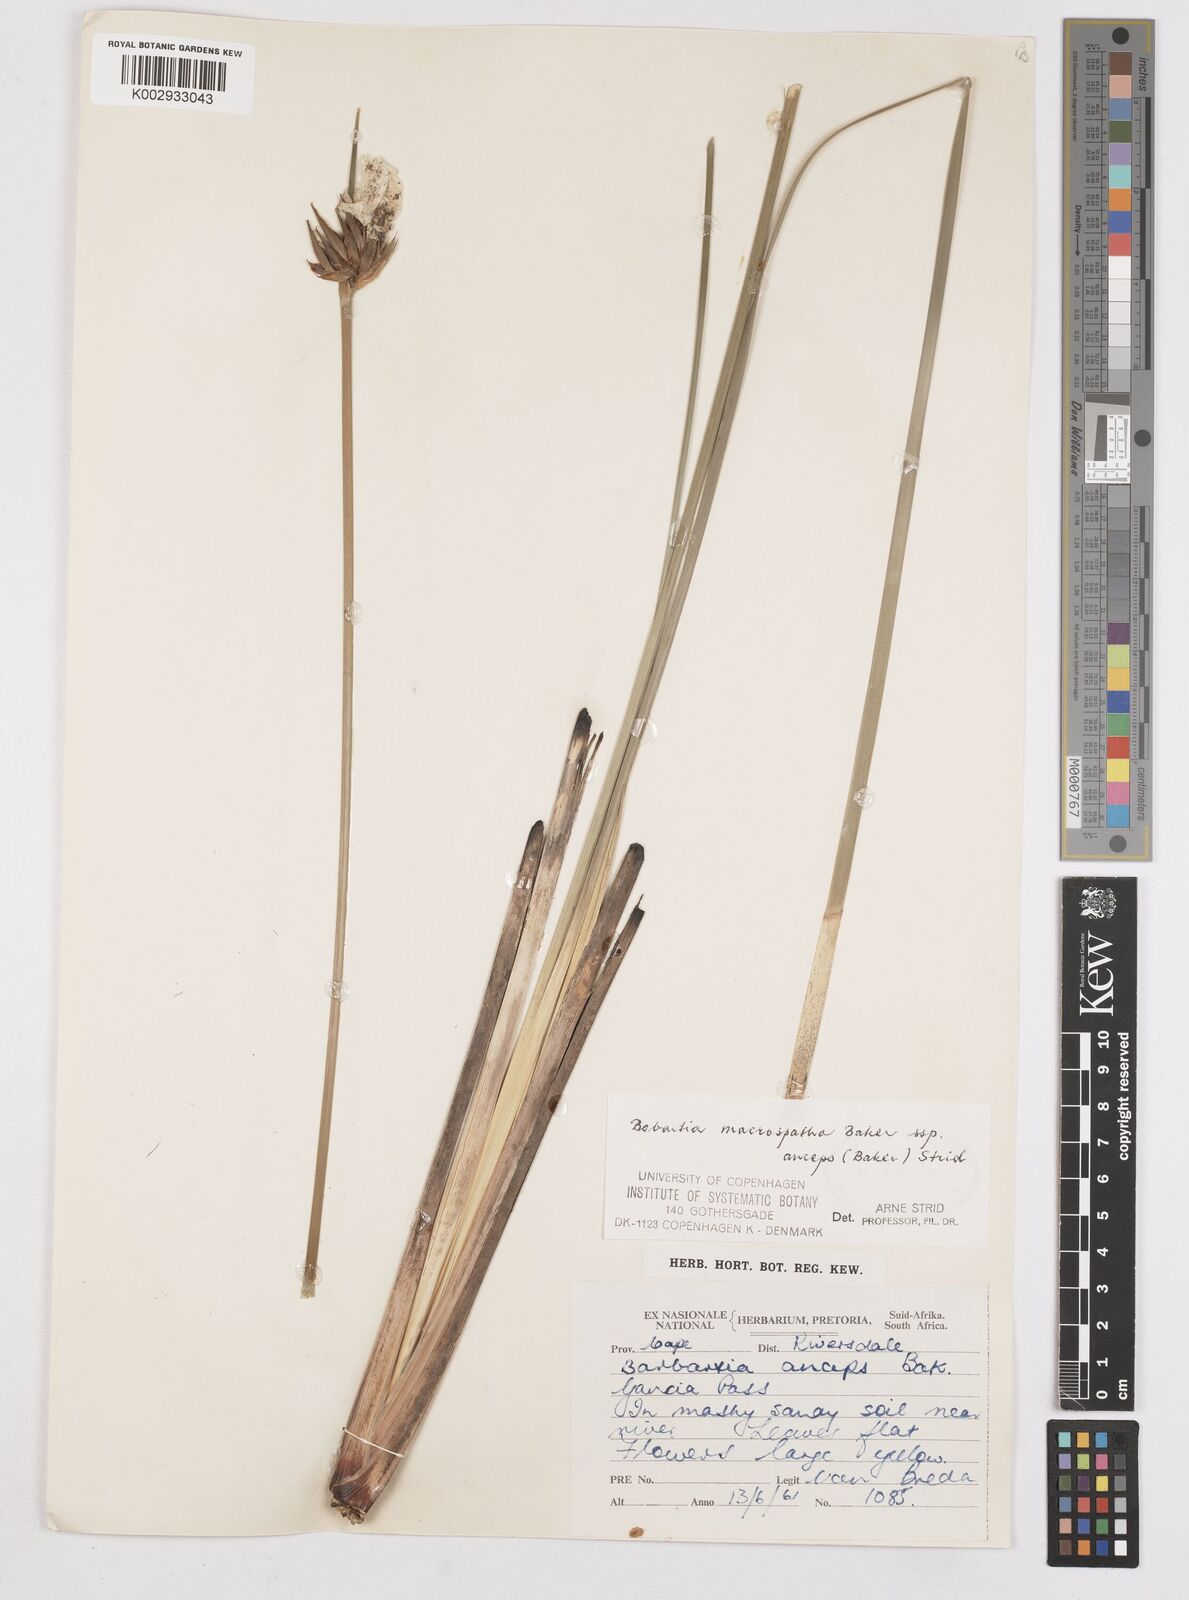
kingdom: Plantae
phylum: Tracheophyta
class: Liliopsida
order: Asparagales
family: Iridaceae
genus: Bobartia
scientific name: Bobartia macrospatha
